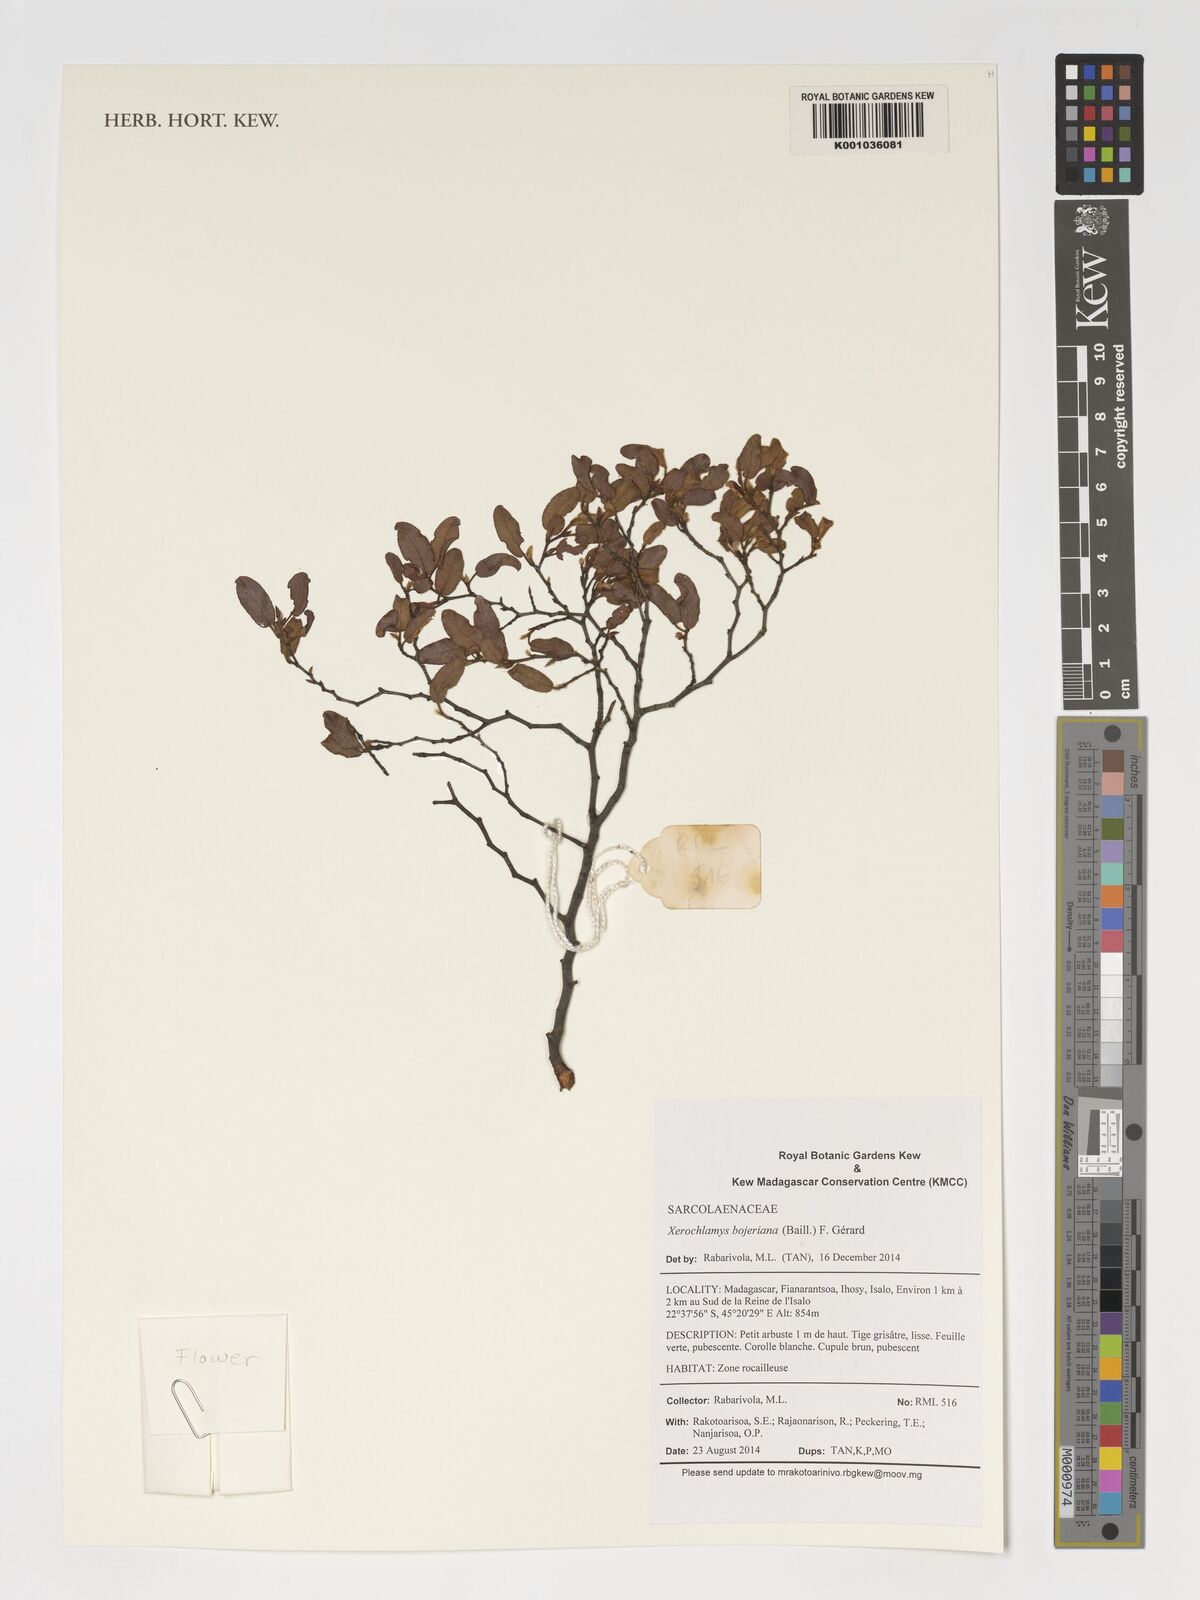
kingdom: Plantae
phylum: Tracheophyta
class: Magnoliopsida
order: Malvales
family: Sarcolaenaceae
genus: Xerochlamys
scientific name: Xerochlamys bojeriana
